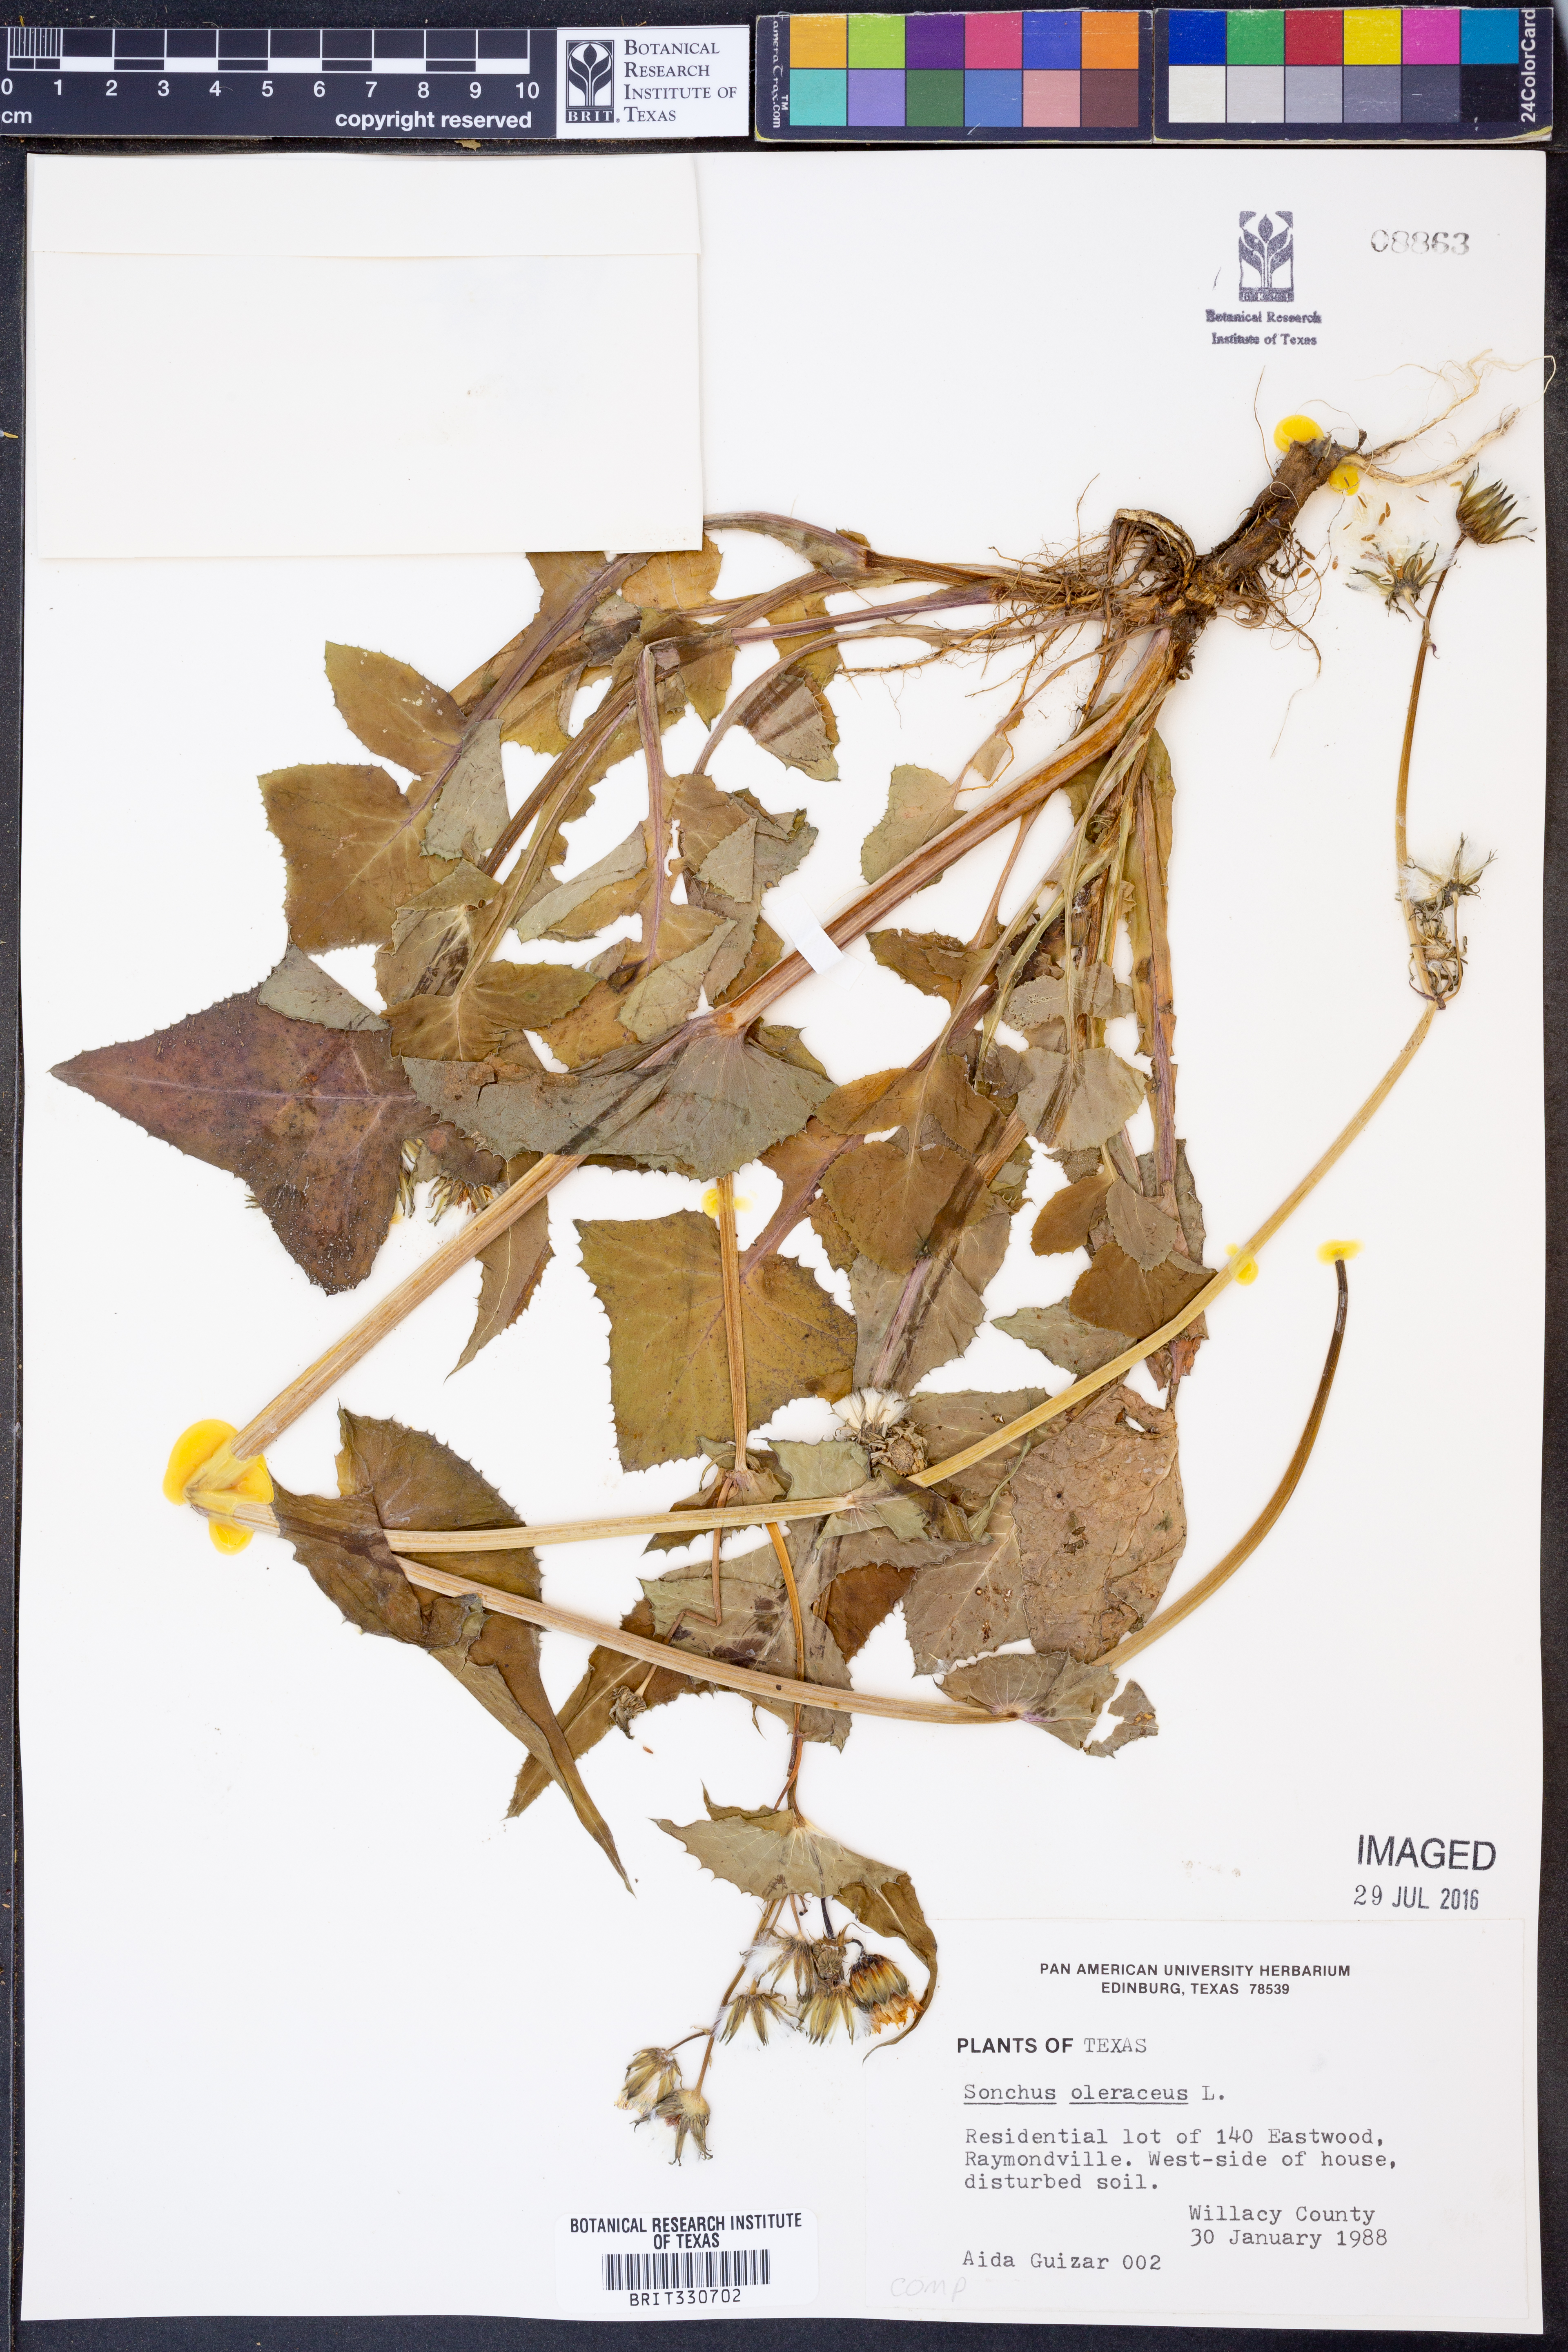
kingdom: Plantae
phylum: Tracheophyta
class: Magnoliopsida
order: Asterales
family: Asteraceae
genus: Sonchus
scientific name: Sonchus oleraceus
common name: Common sowthistle
